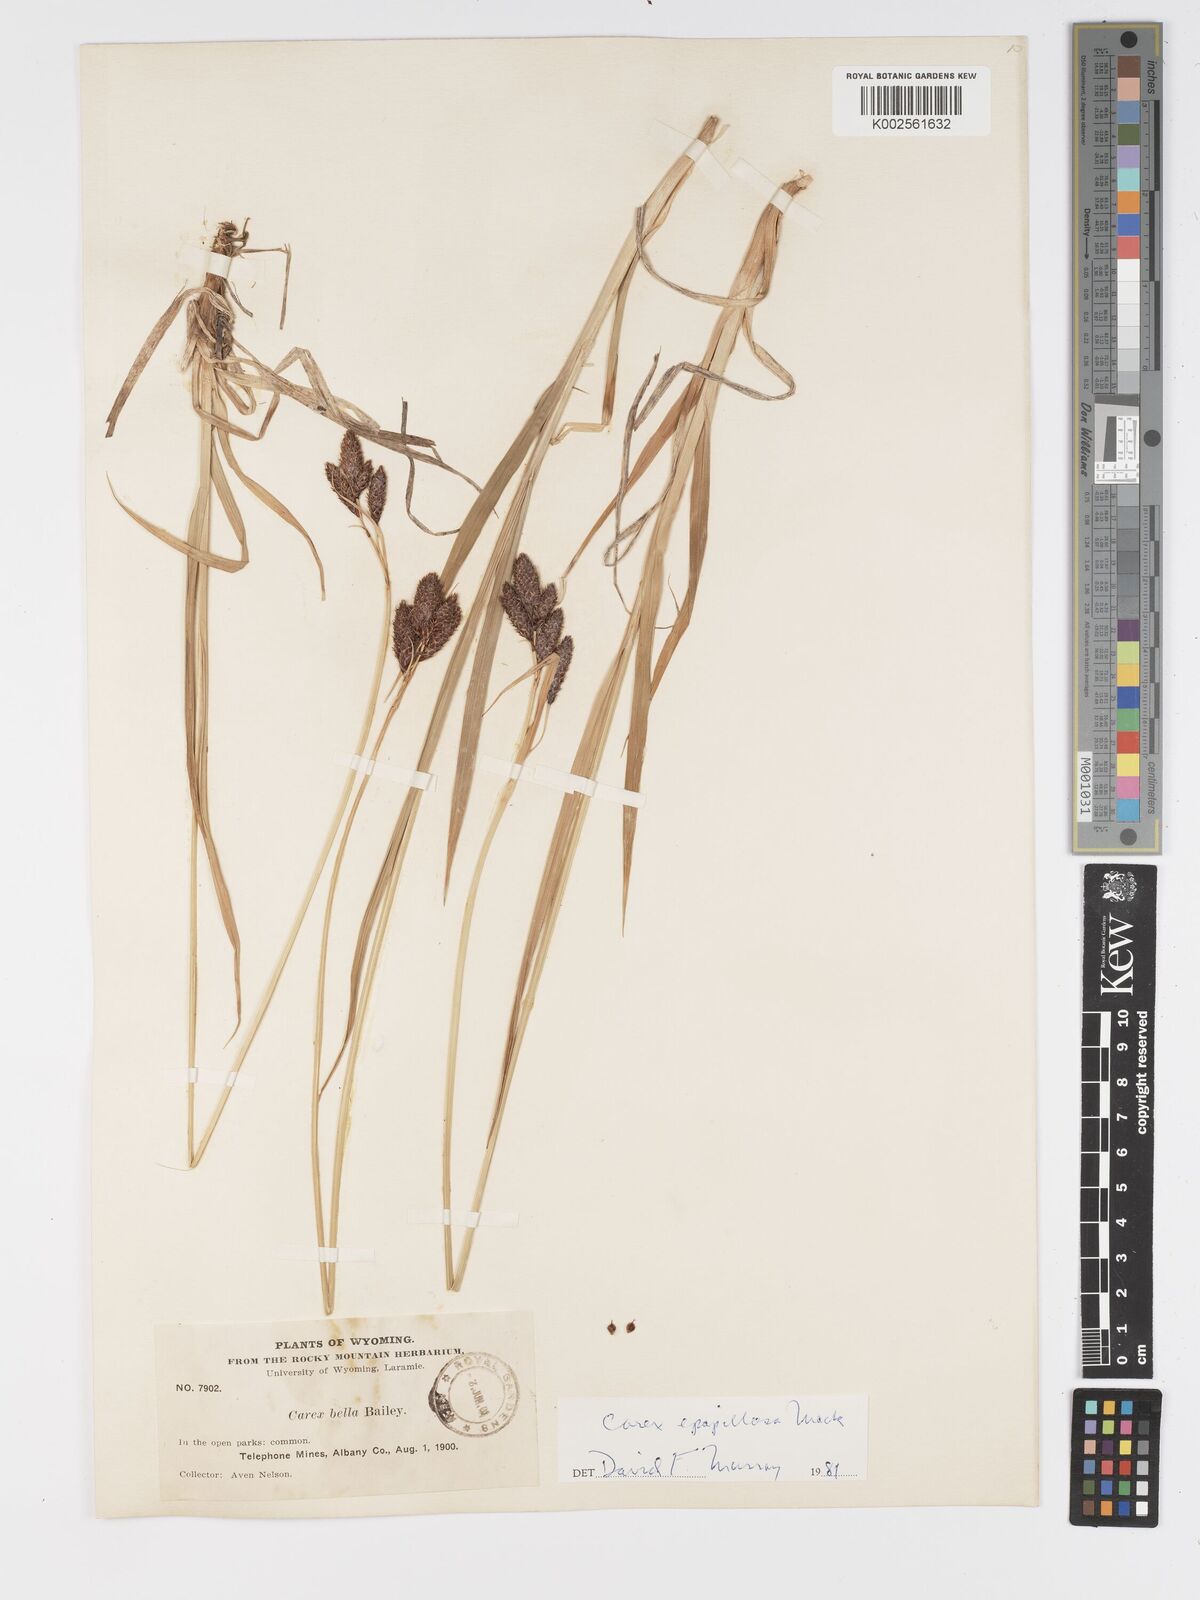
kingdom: Plantae
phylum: Tracheophyta
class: Liliopsida
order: Poales
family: Cyperaceae
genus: Carex
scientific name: Carex heteroneura
